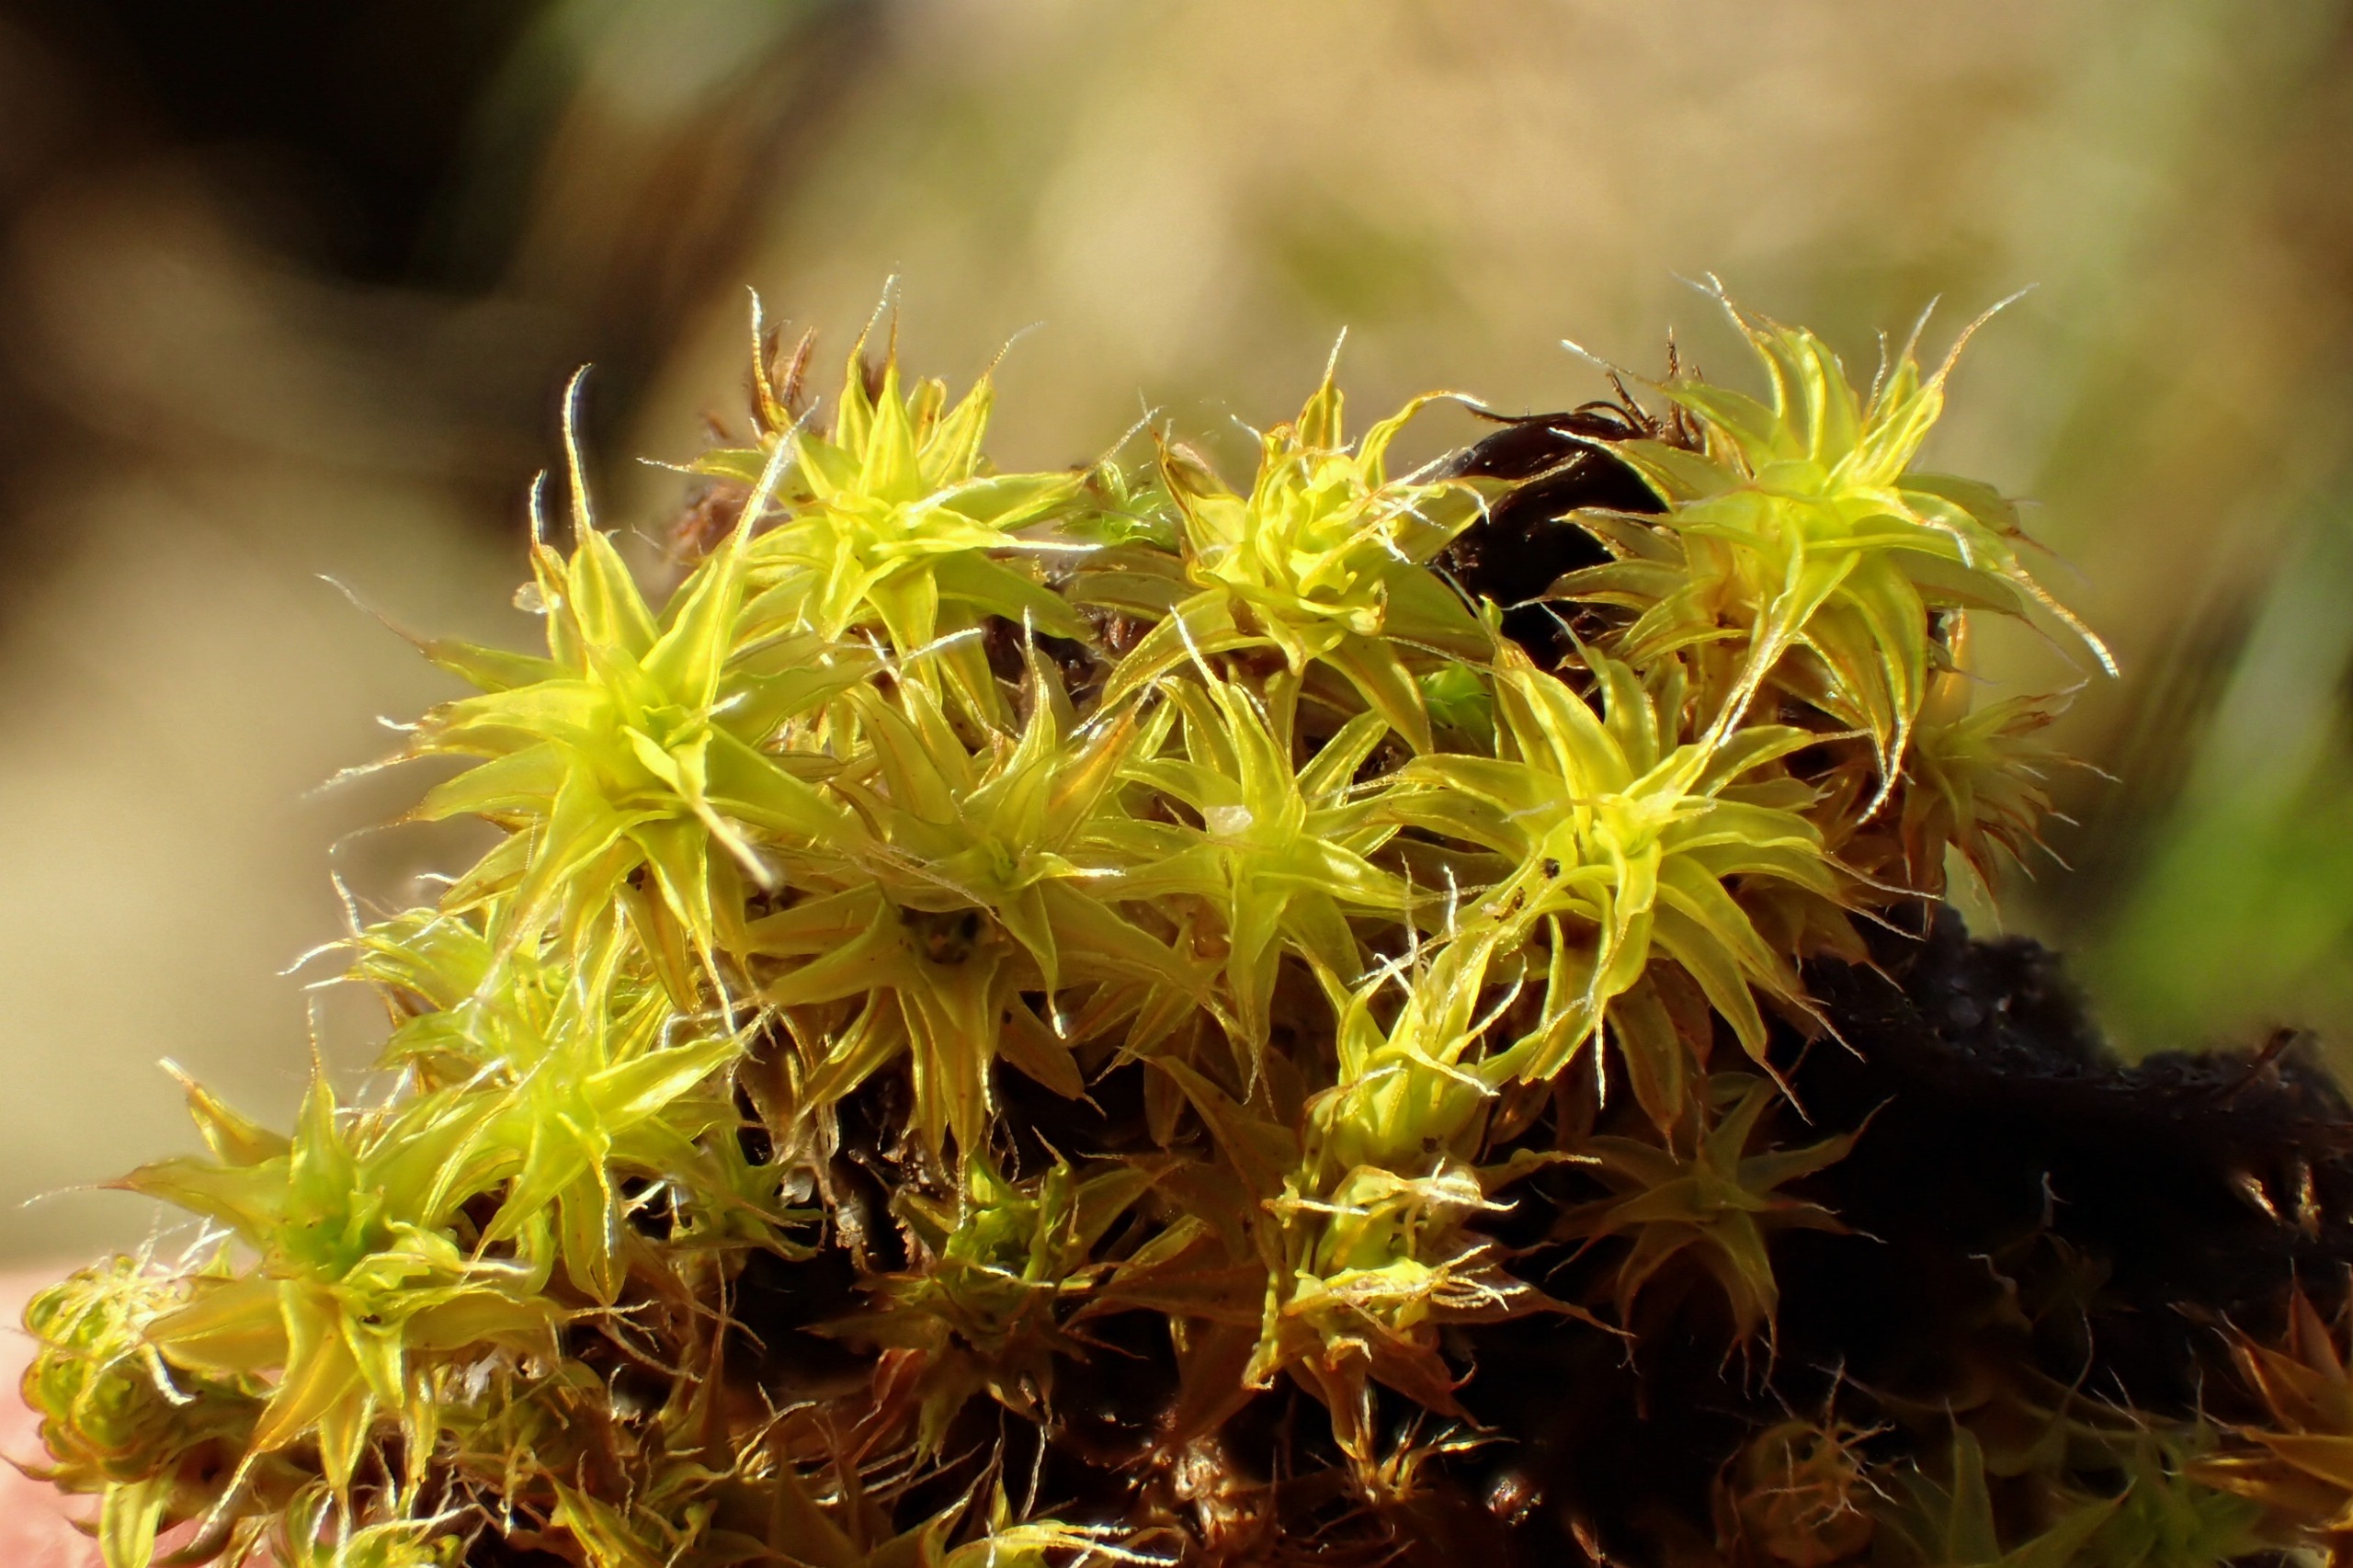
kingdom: Plantae
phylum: Bryophyta
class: Bryopsida
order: Pottiales
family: Pottiaceae
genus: Syntrichia
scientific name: Syntrichia ruralis
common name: Spidsbladet hårstjerne
